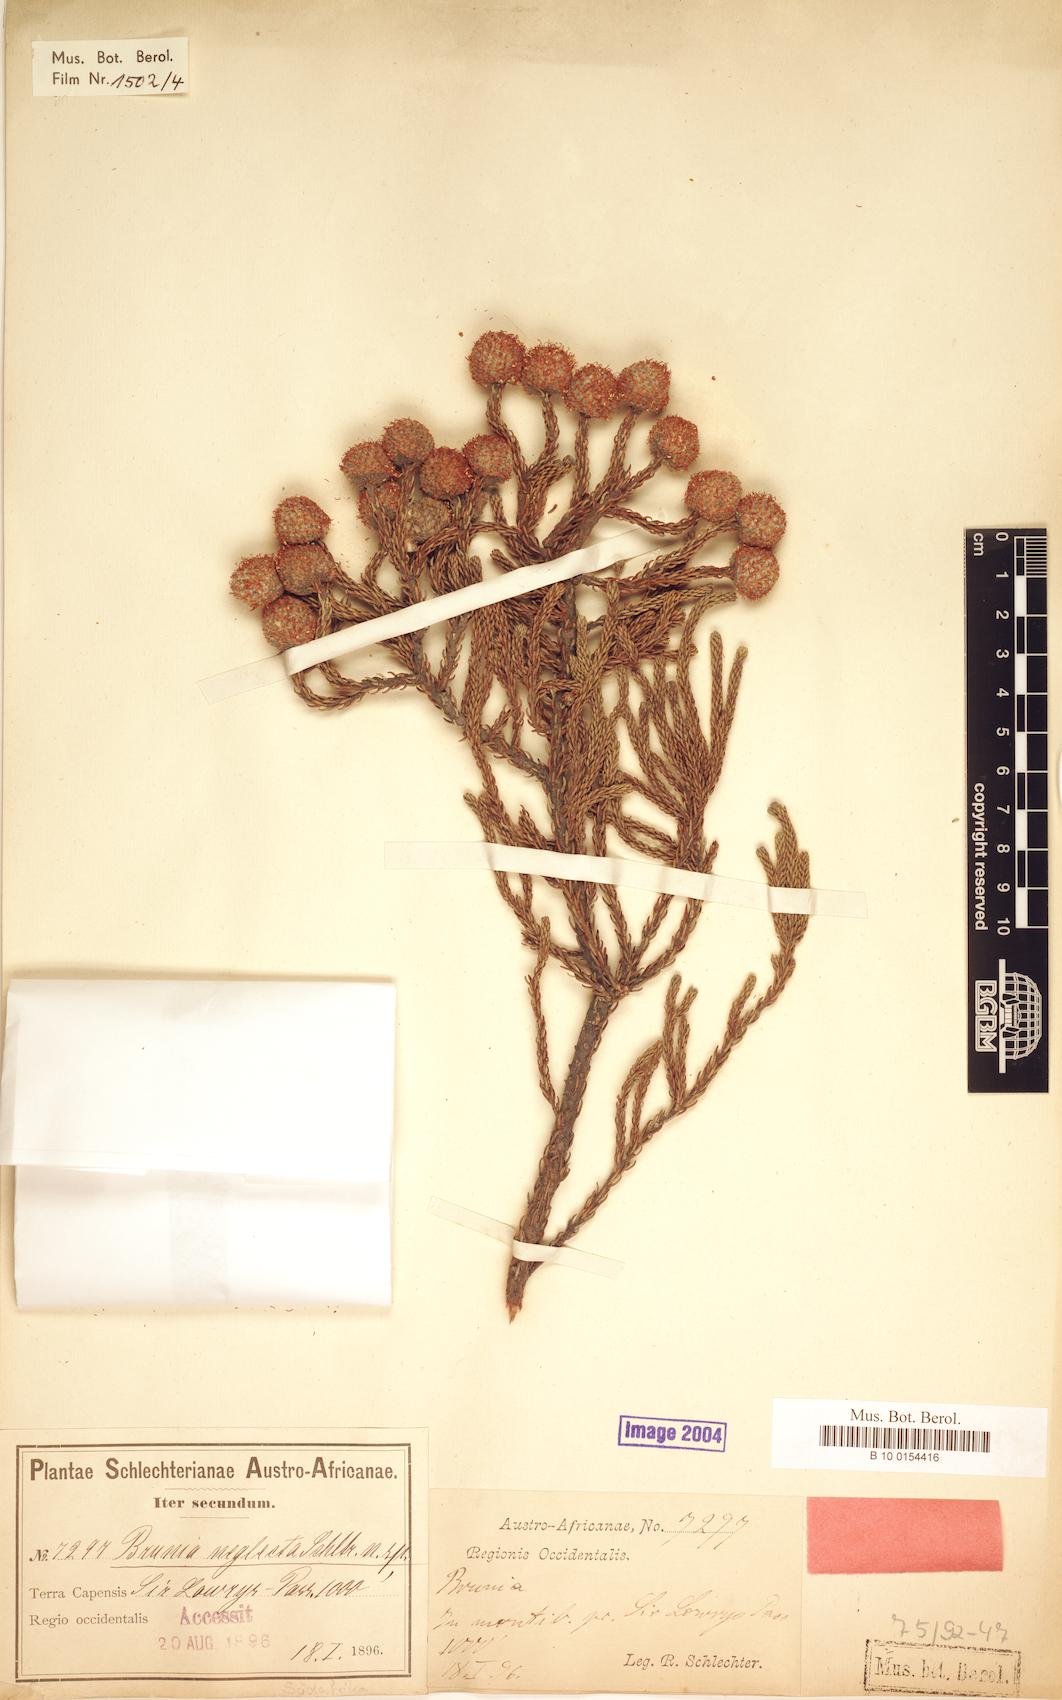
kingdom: Plantae
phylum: Tracheophyta
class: Magnoliopsida
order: Bruniales
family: Bruniaceae
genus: Brunia
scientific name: Brunia neglecta
